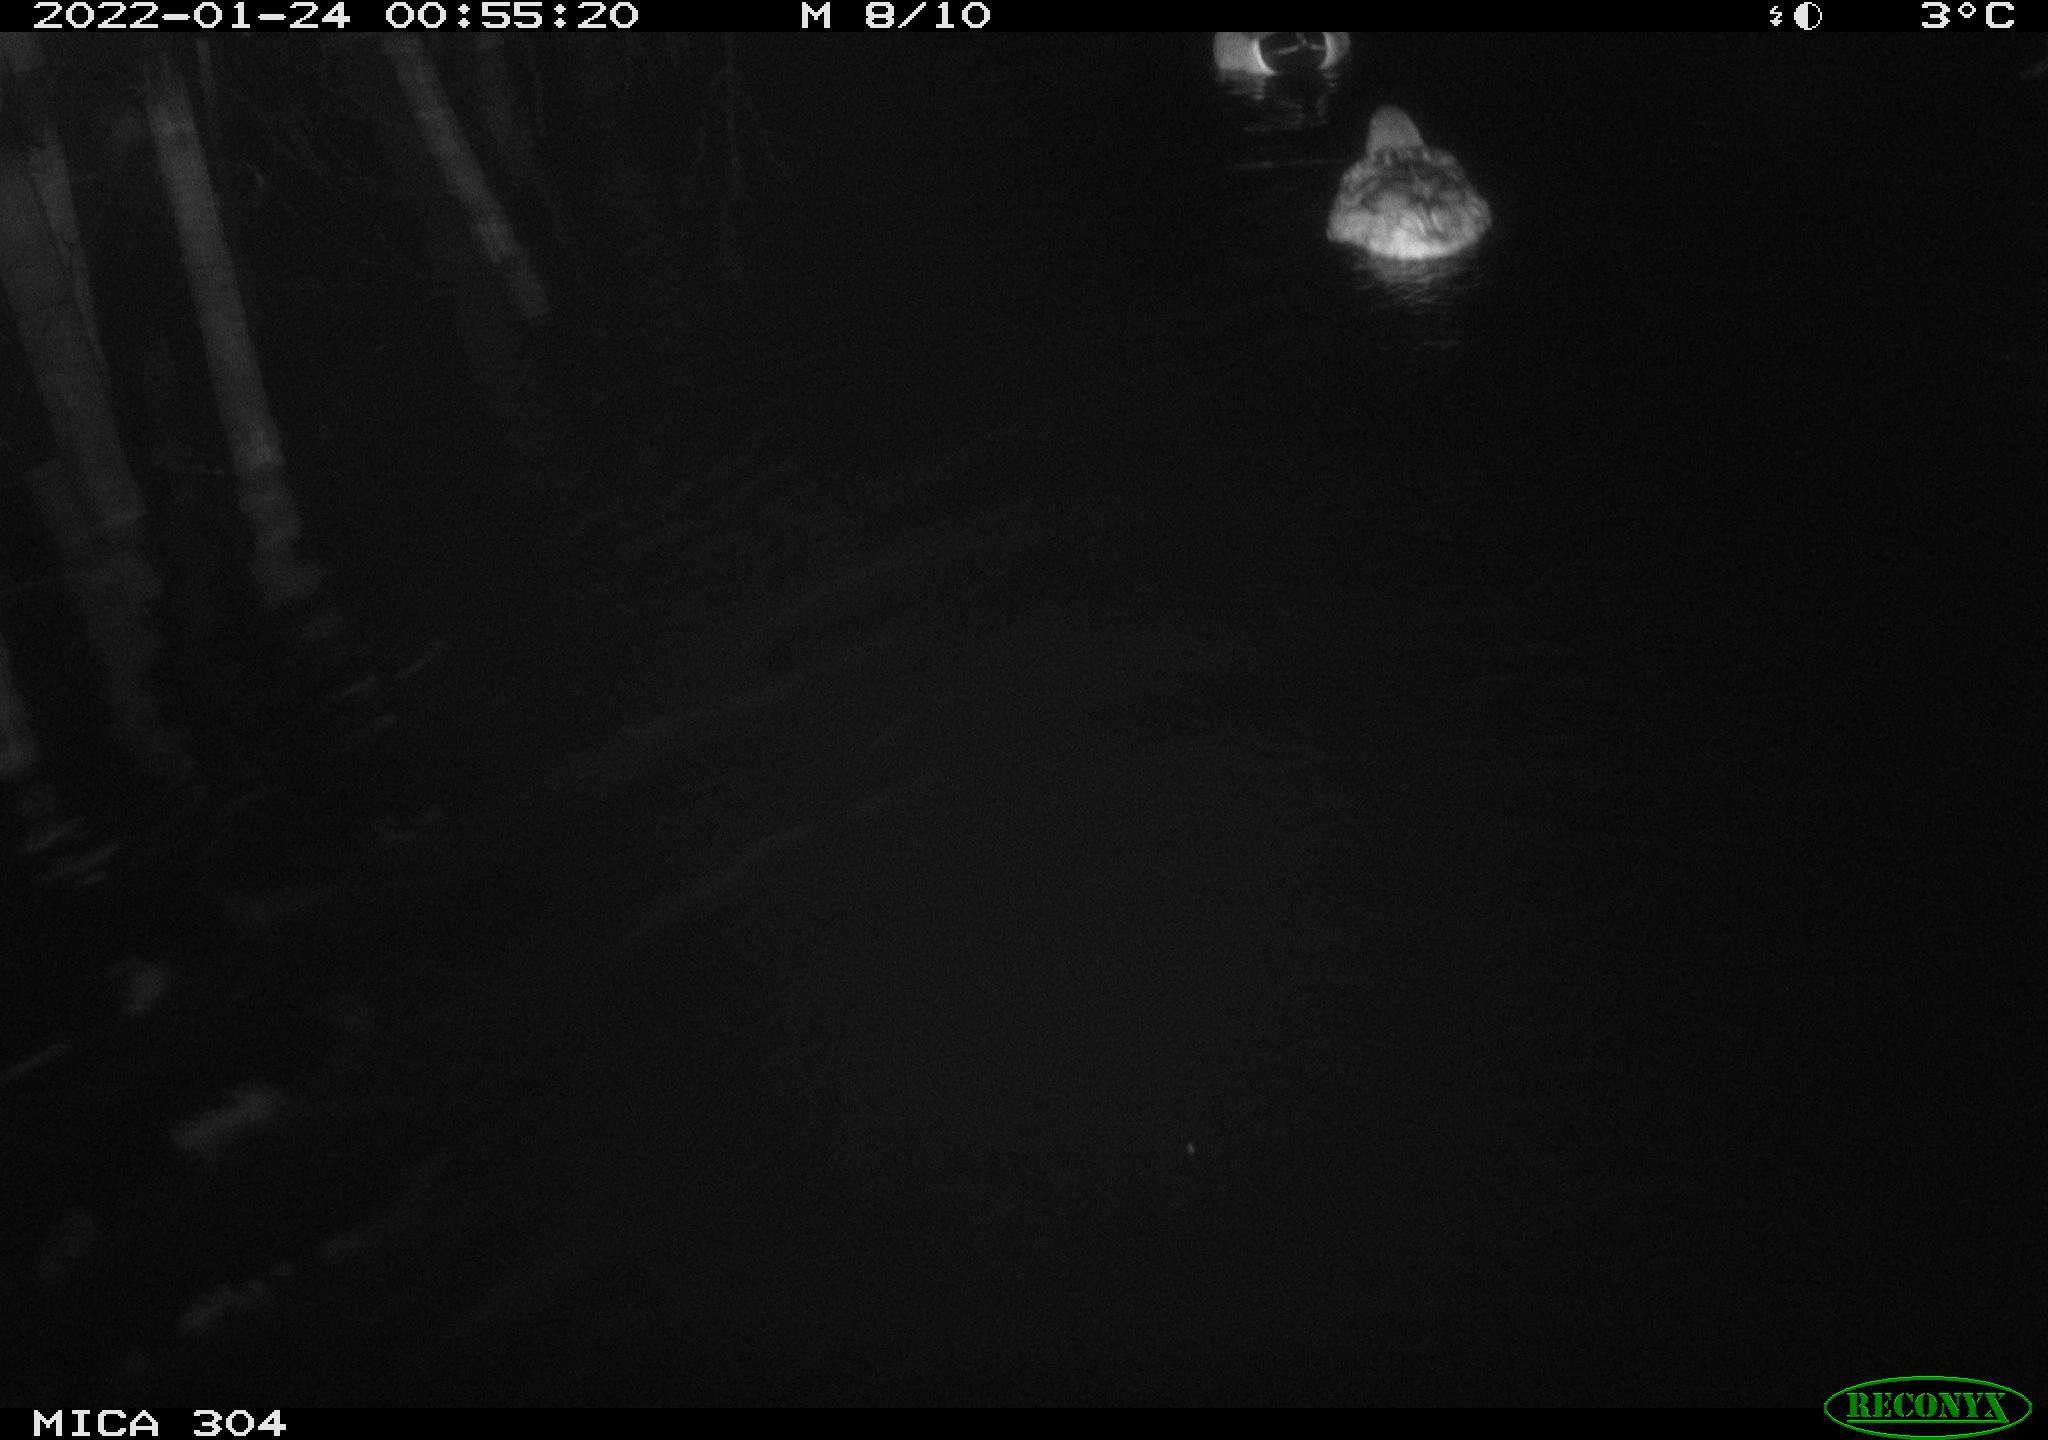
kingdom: Animalia
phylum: Chordata
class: Aves
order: Anseriformes
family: Anatidae
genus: Anas
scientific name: Anas platyrhynchos
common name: Mallard
